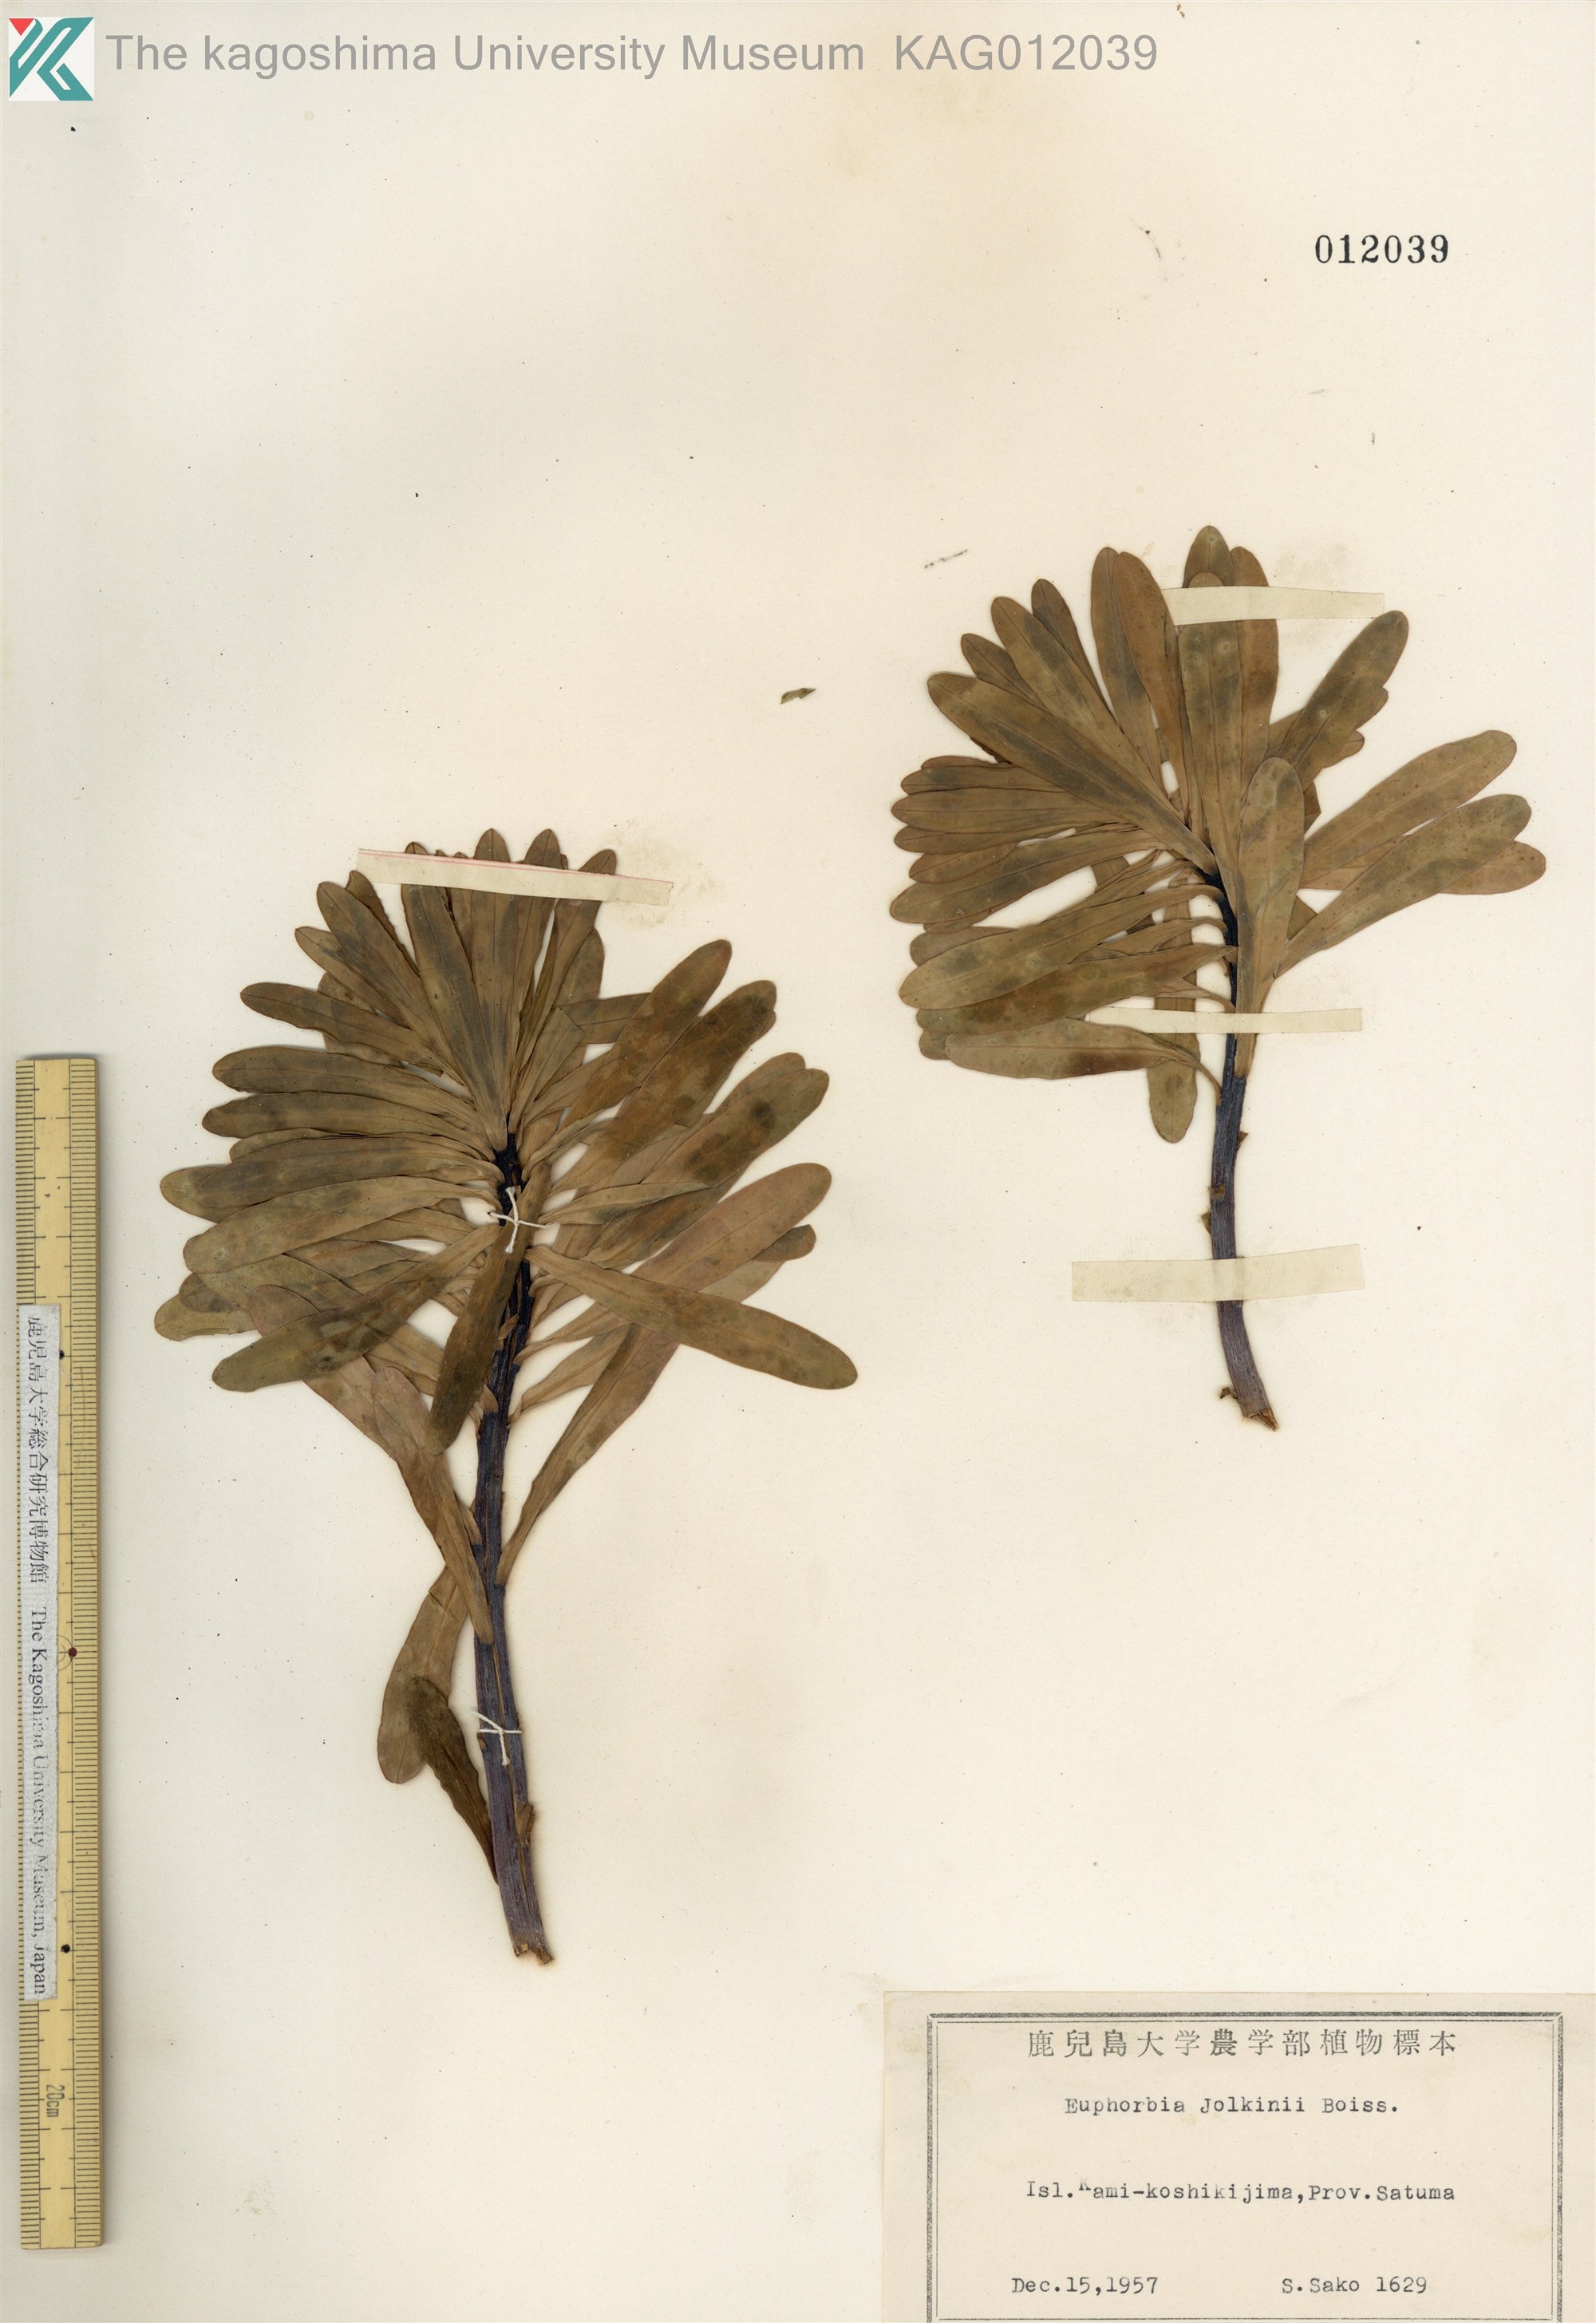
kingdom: Plantae
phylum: Tracheophyta
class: Magnoliopsida
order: Malpighiales
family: Euphorbiaceae
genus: Euphorbia
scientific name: Euphorbia jolkinii
